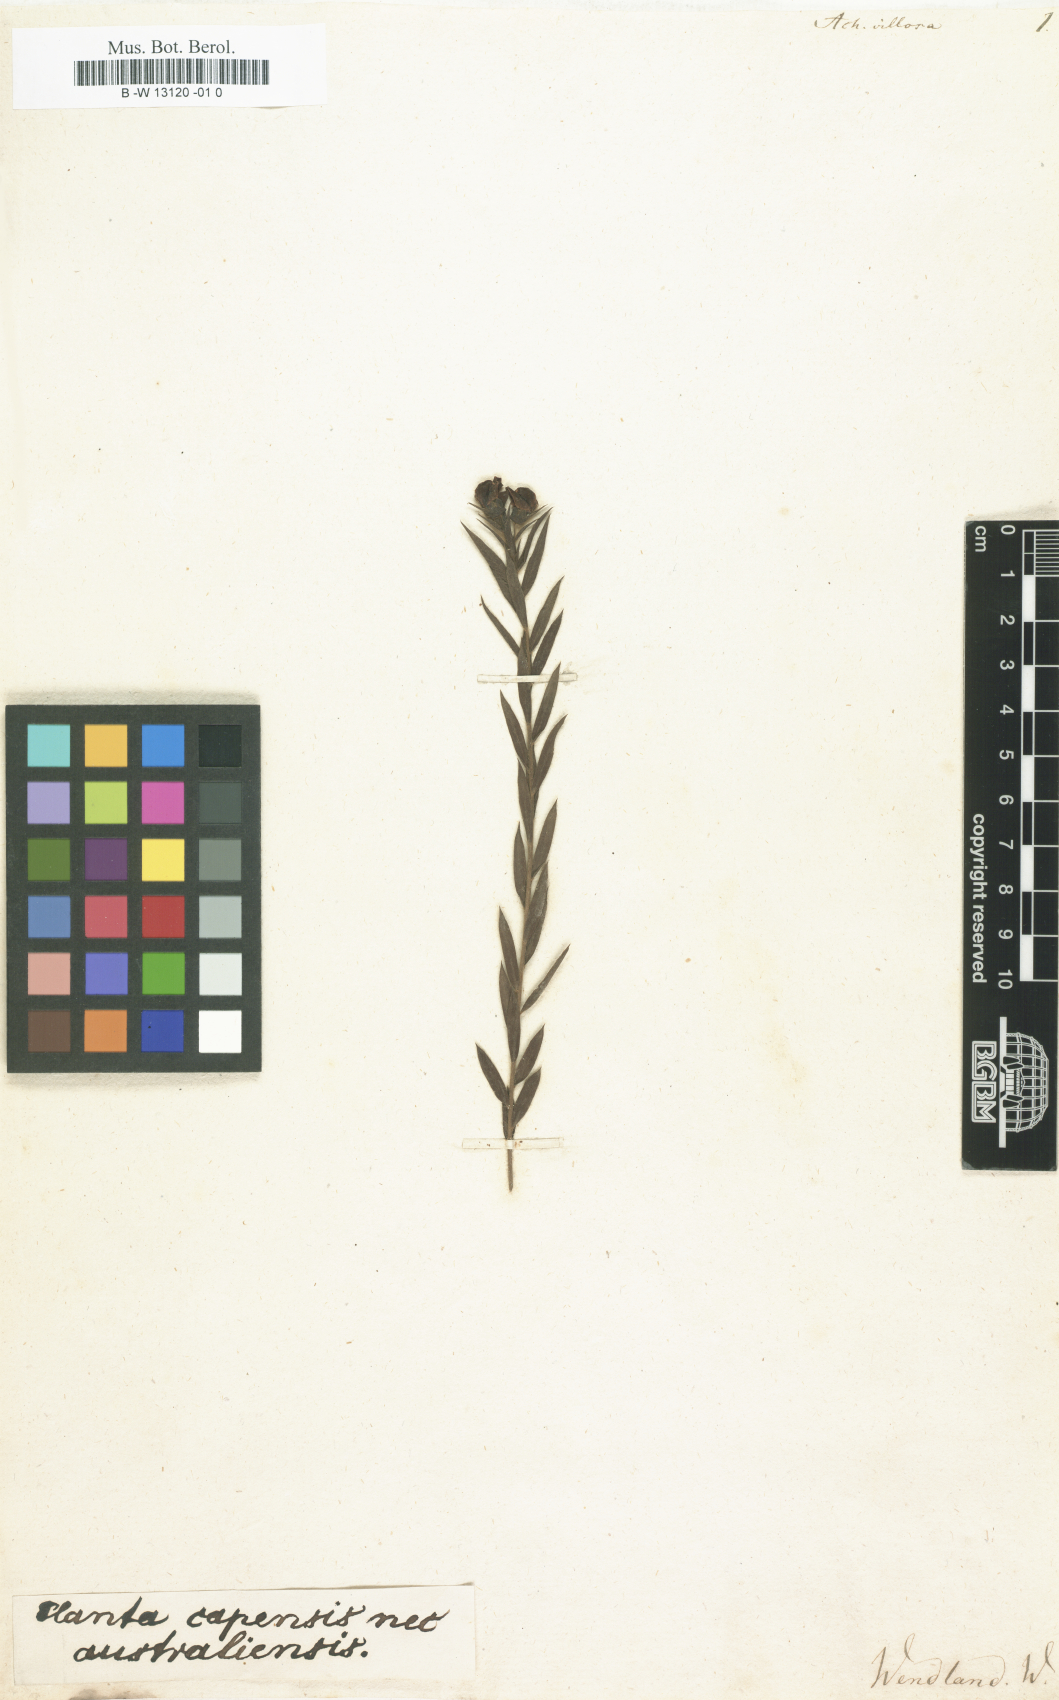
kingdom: Plantae
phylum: Tracheophyta
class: Magnoliopsida
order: Fabales
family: Fabaceae
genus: Liparia
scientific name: Liparia angustifolia
